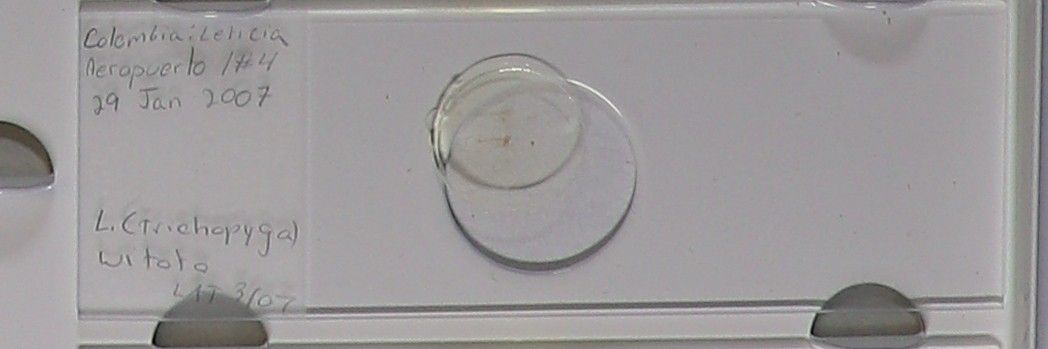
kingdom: Animalia
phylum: Arthropoda
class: Insecta
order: Diptera
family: Psychodidae
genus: Trichopygomyia
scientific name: Trichopygomyia witoto
